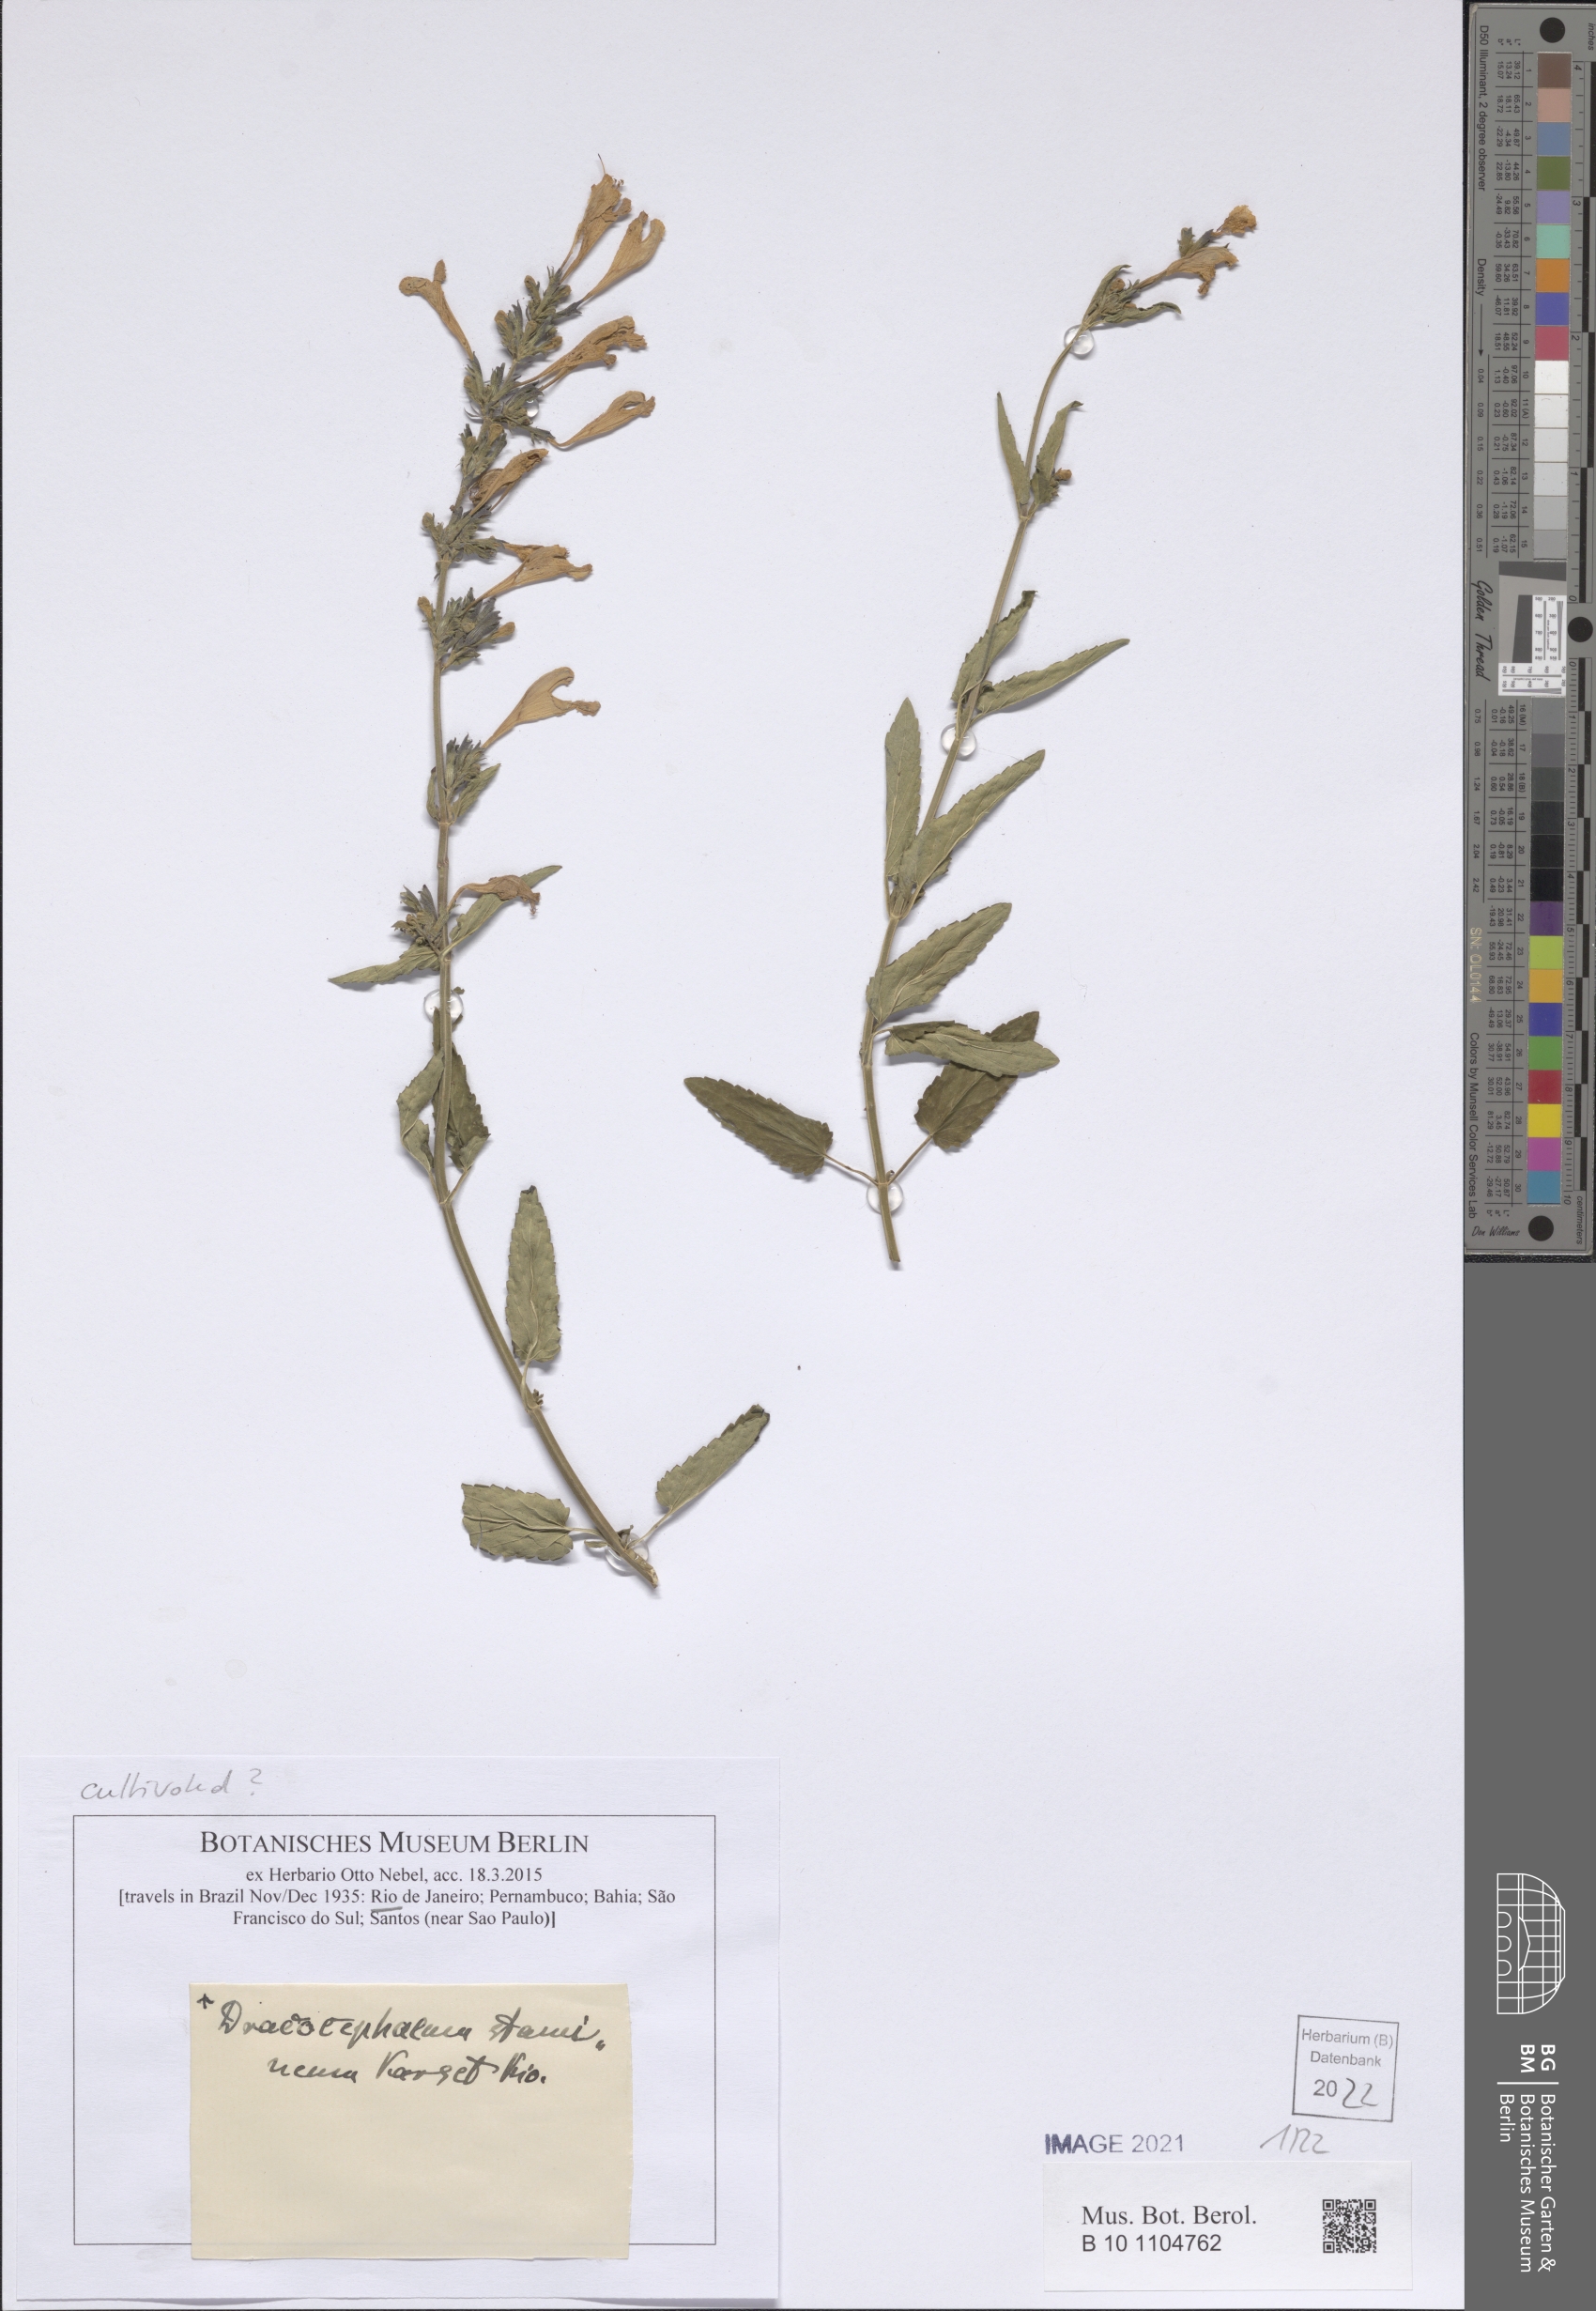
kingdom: Plantae
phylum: Tracheophyta
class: Magnoliopsida
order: Lamiales
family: Lamiaceae
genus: Dracocephalum
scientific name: Dracocephalum stamineum
